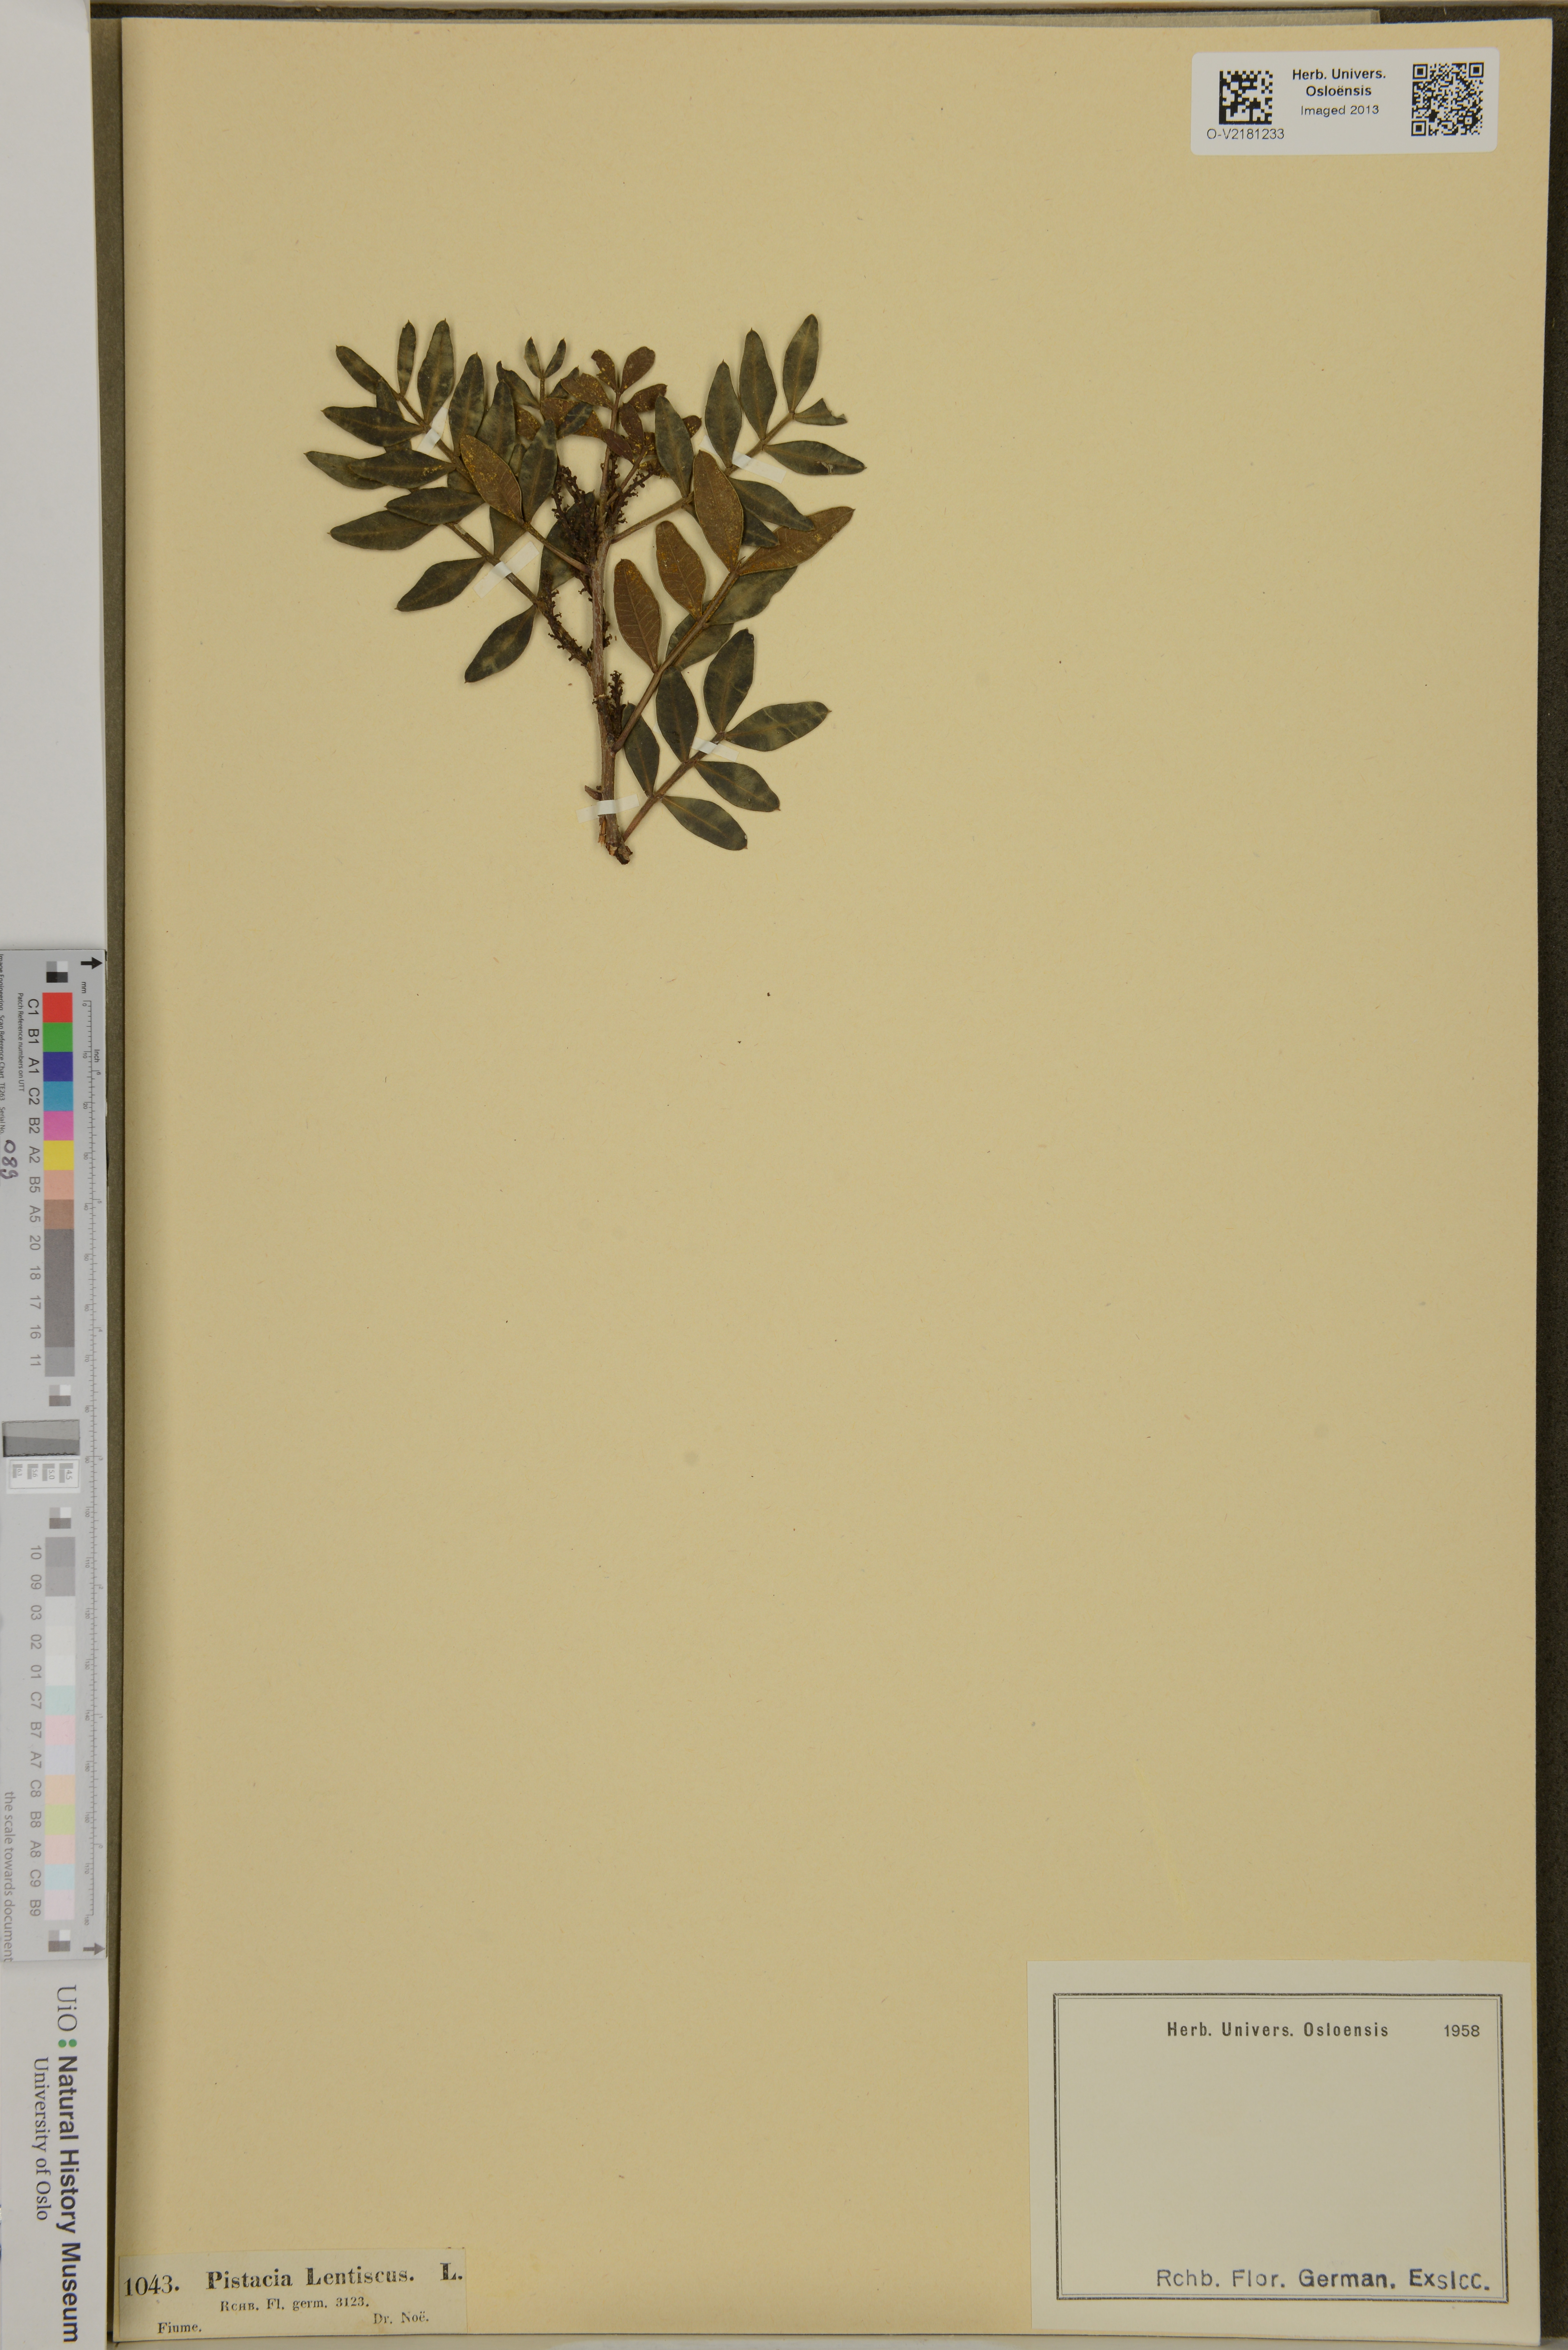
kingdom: Plantae
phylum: Tracheophyta
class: Magnoliopsida
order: Sapindales
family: Anacardiaceae
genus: Pistacia
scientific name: Pistacia lentiscus
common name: Lentisk
